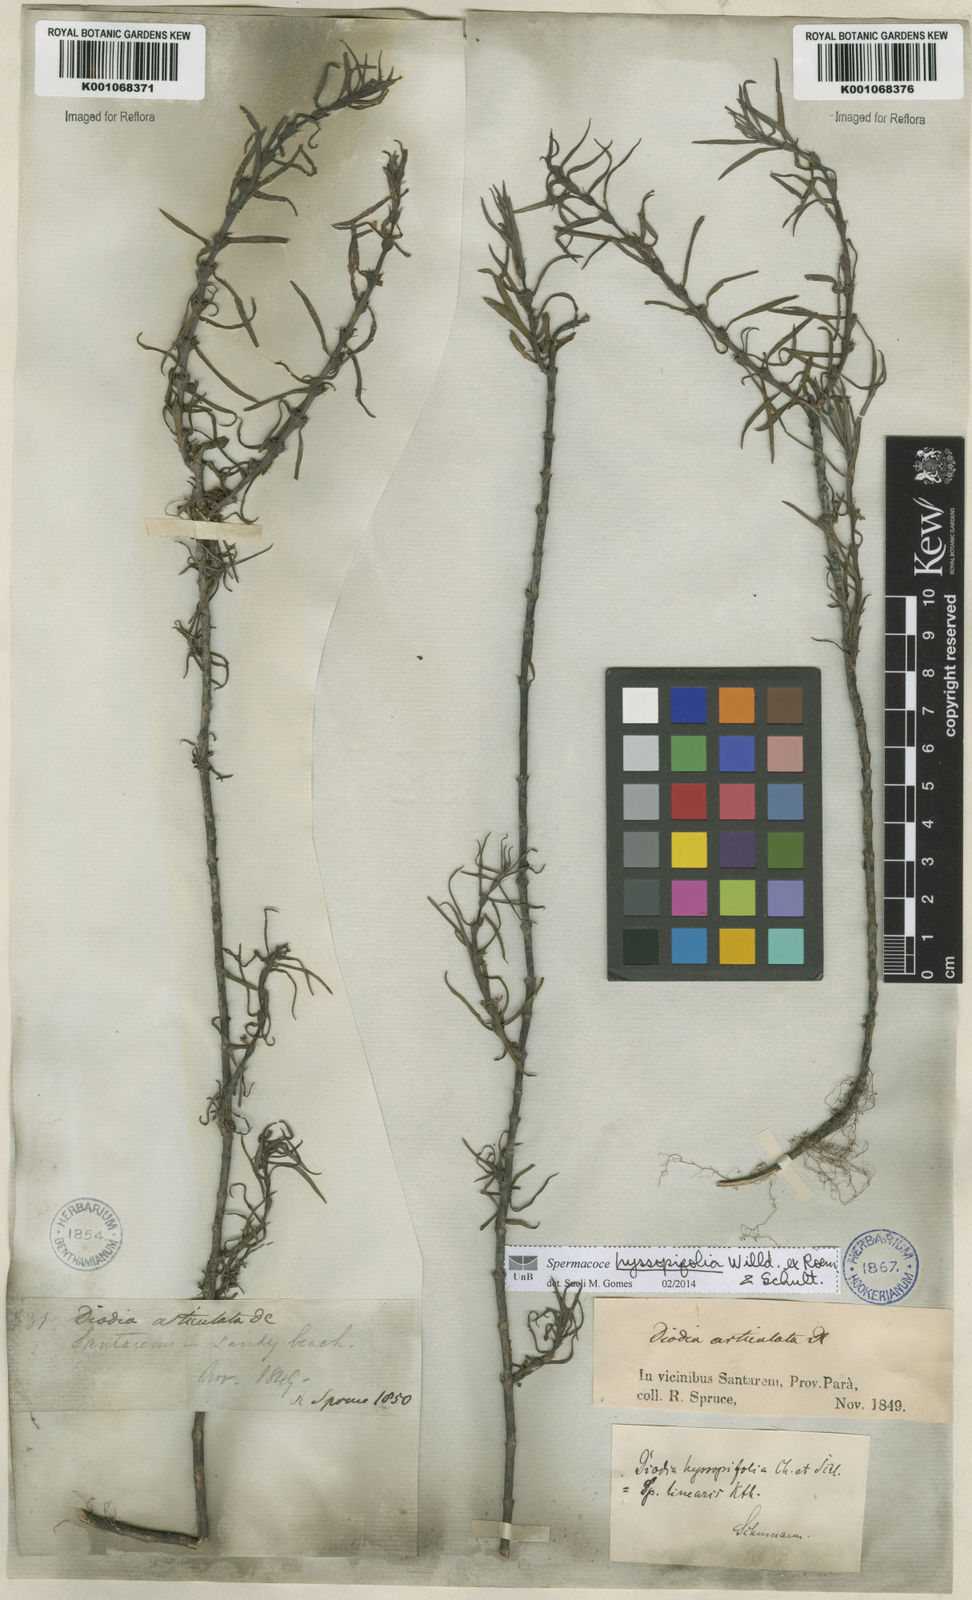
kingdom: Plantae
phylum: Tracheophyta
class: Magnoliopsida
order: Gentianales
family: Rubiaceae
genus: Spermacoce
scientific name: Spermacoce
